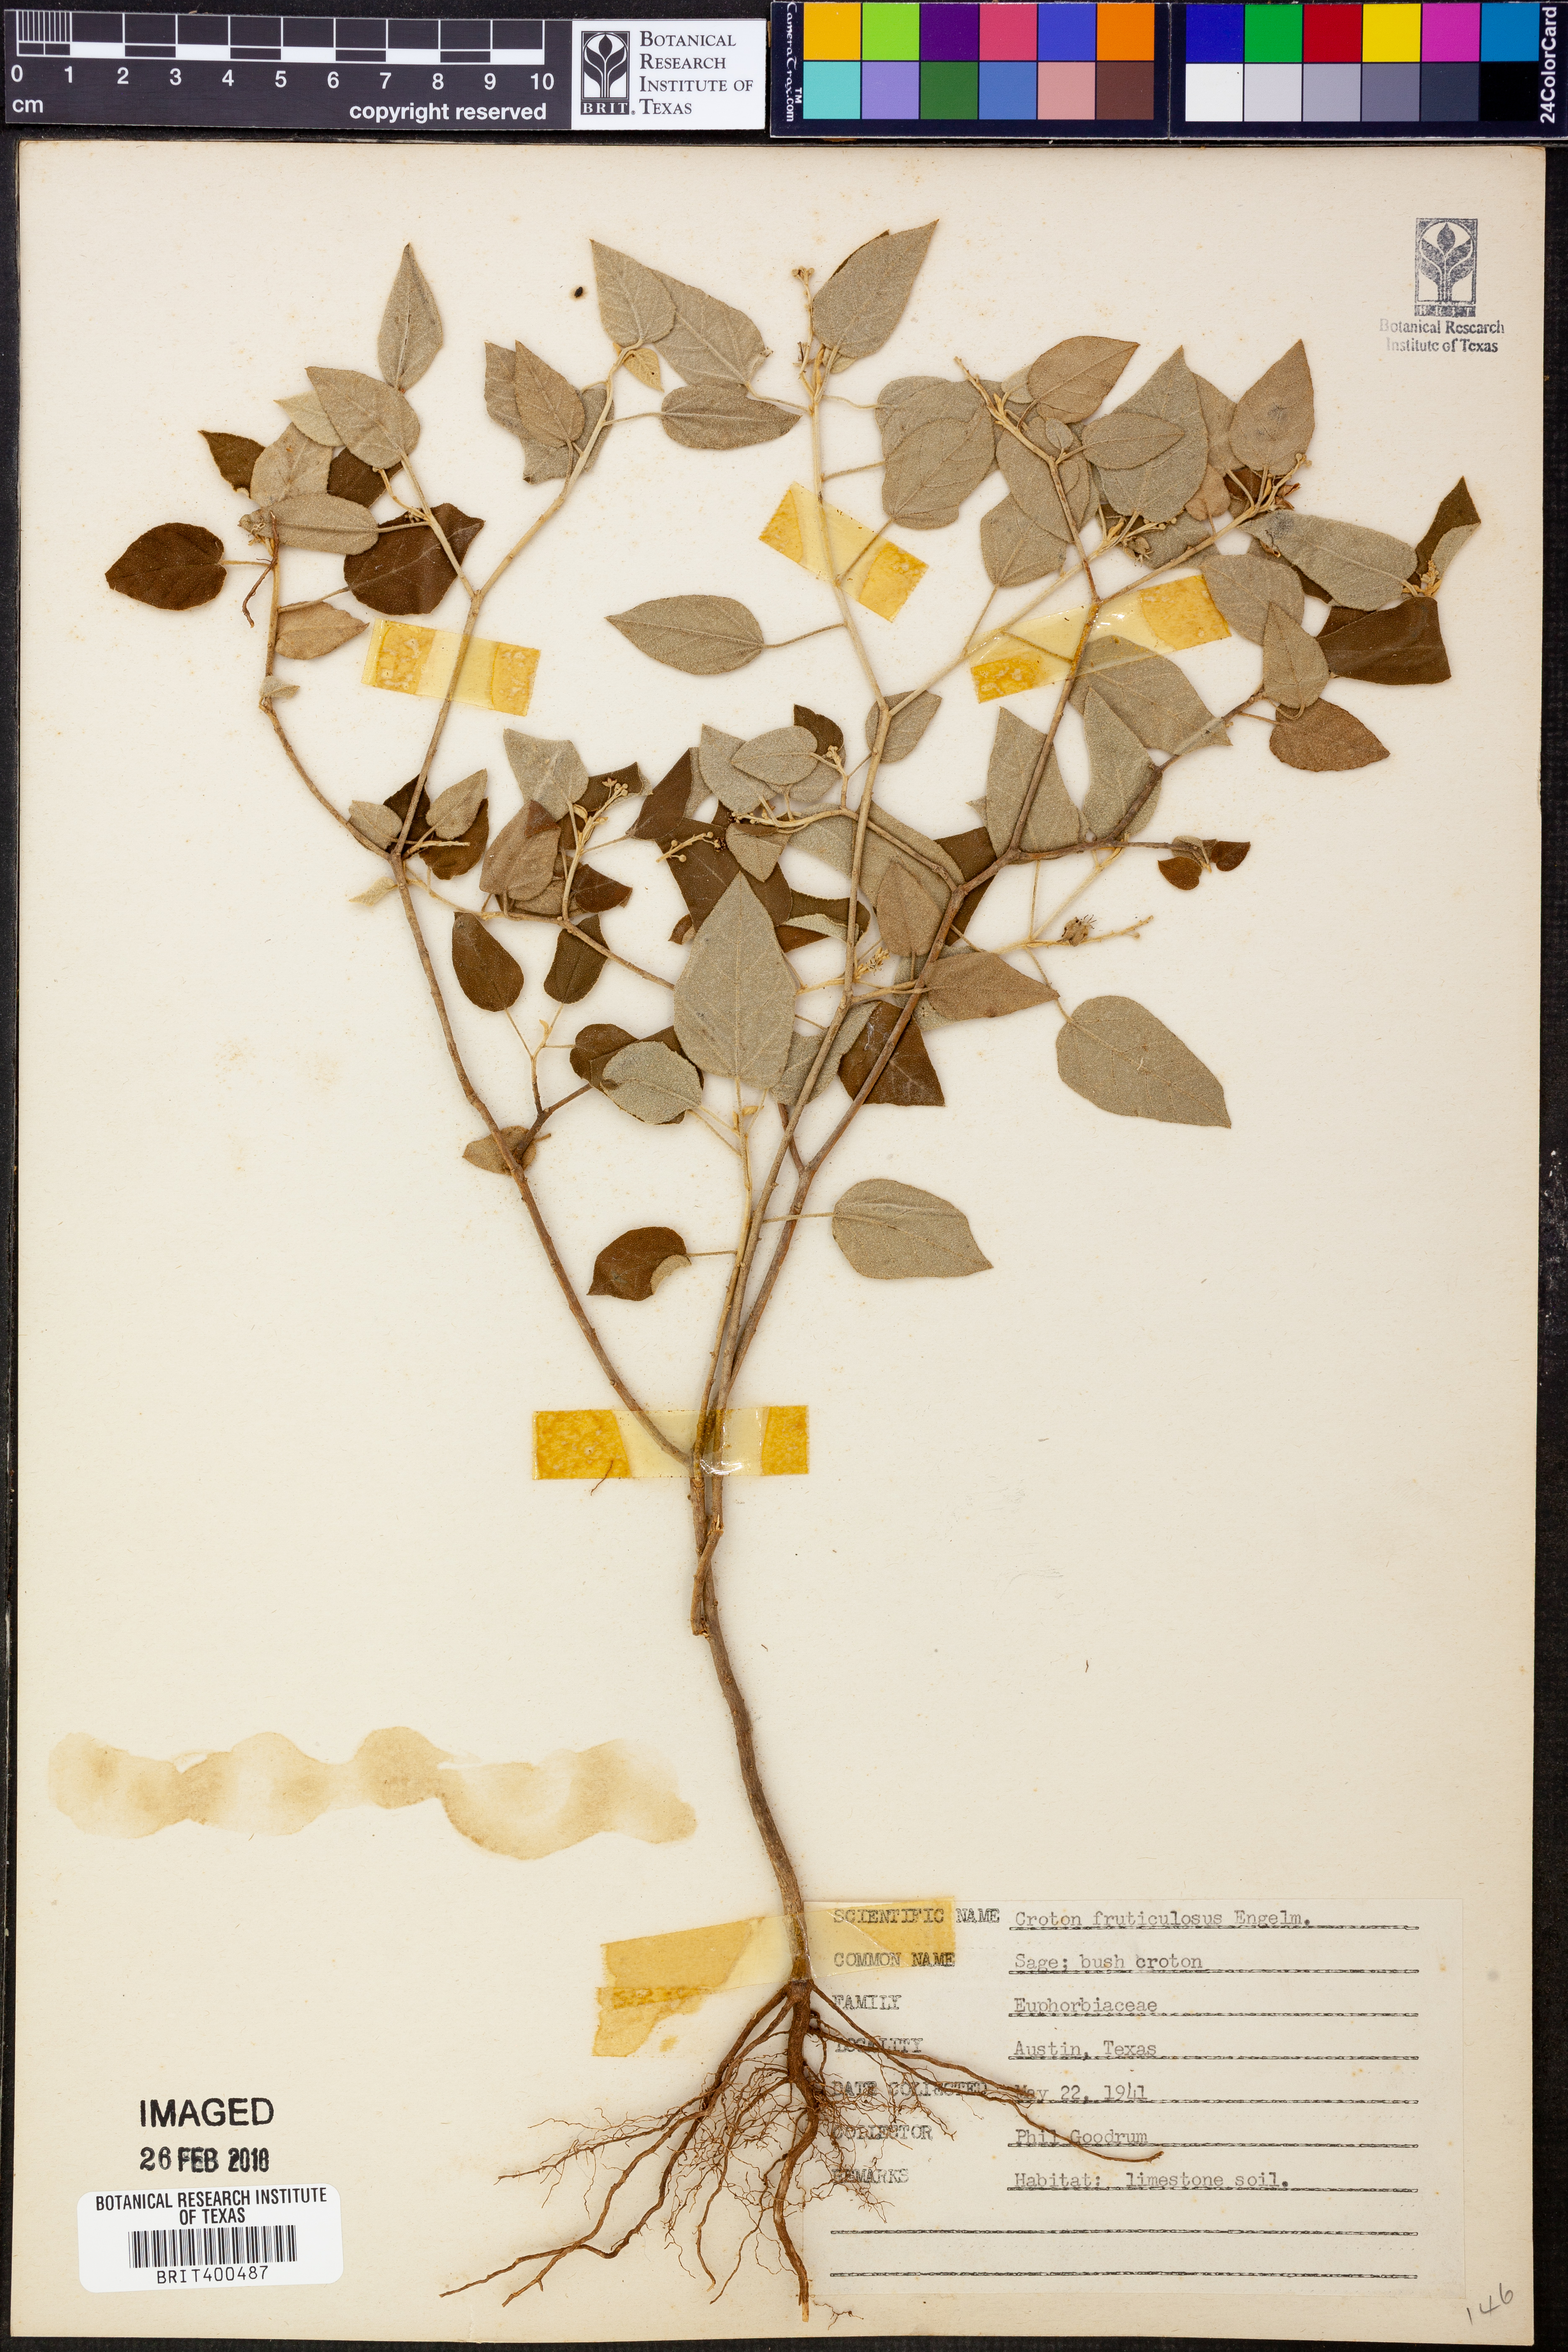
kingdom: Plantae
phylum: Tracheophyta
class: Magnoliopsida
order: Malpighiales
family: Euphorbiaceae
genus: Croton
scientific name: Croton fruticulosus
